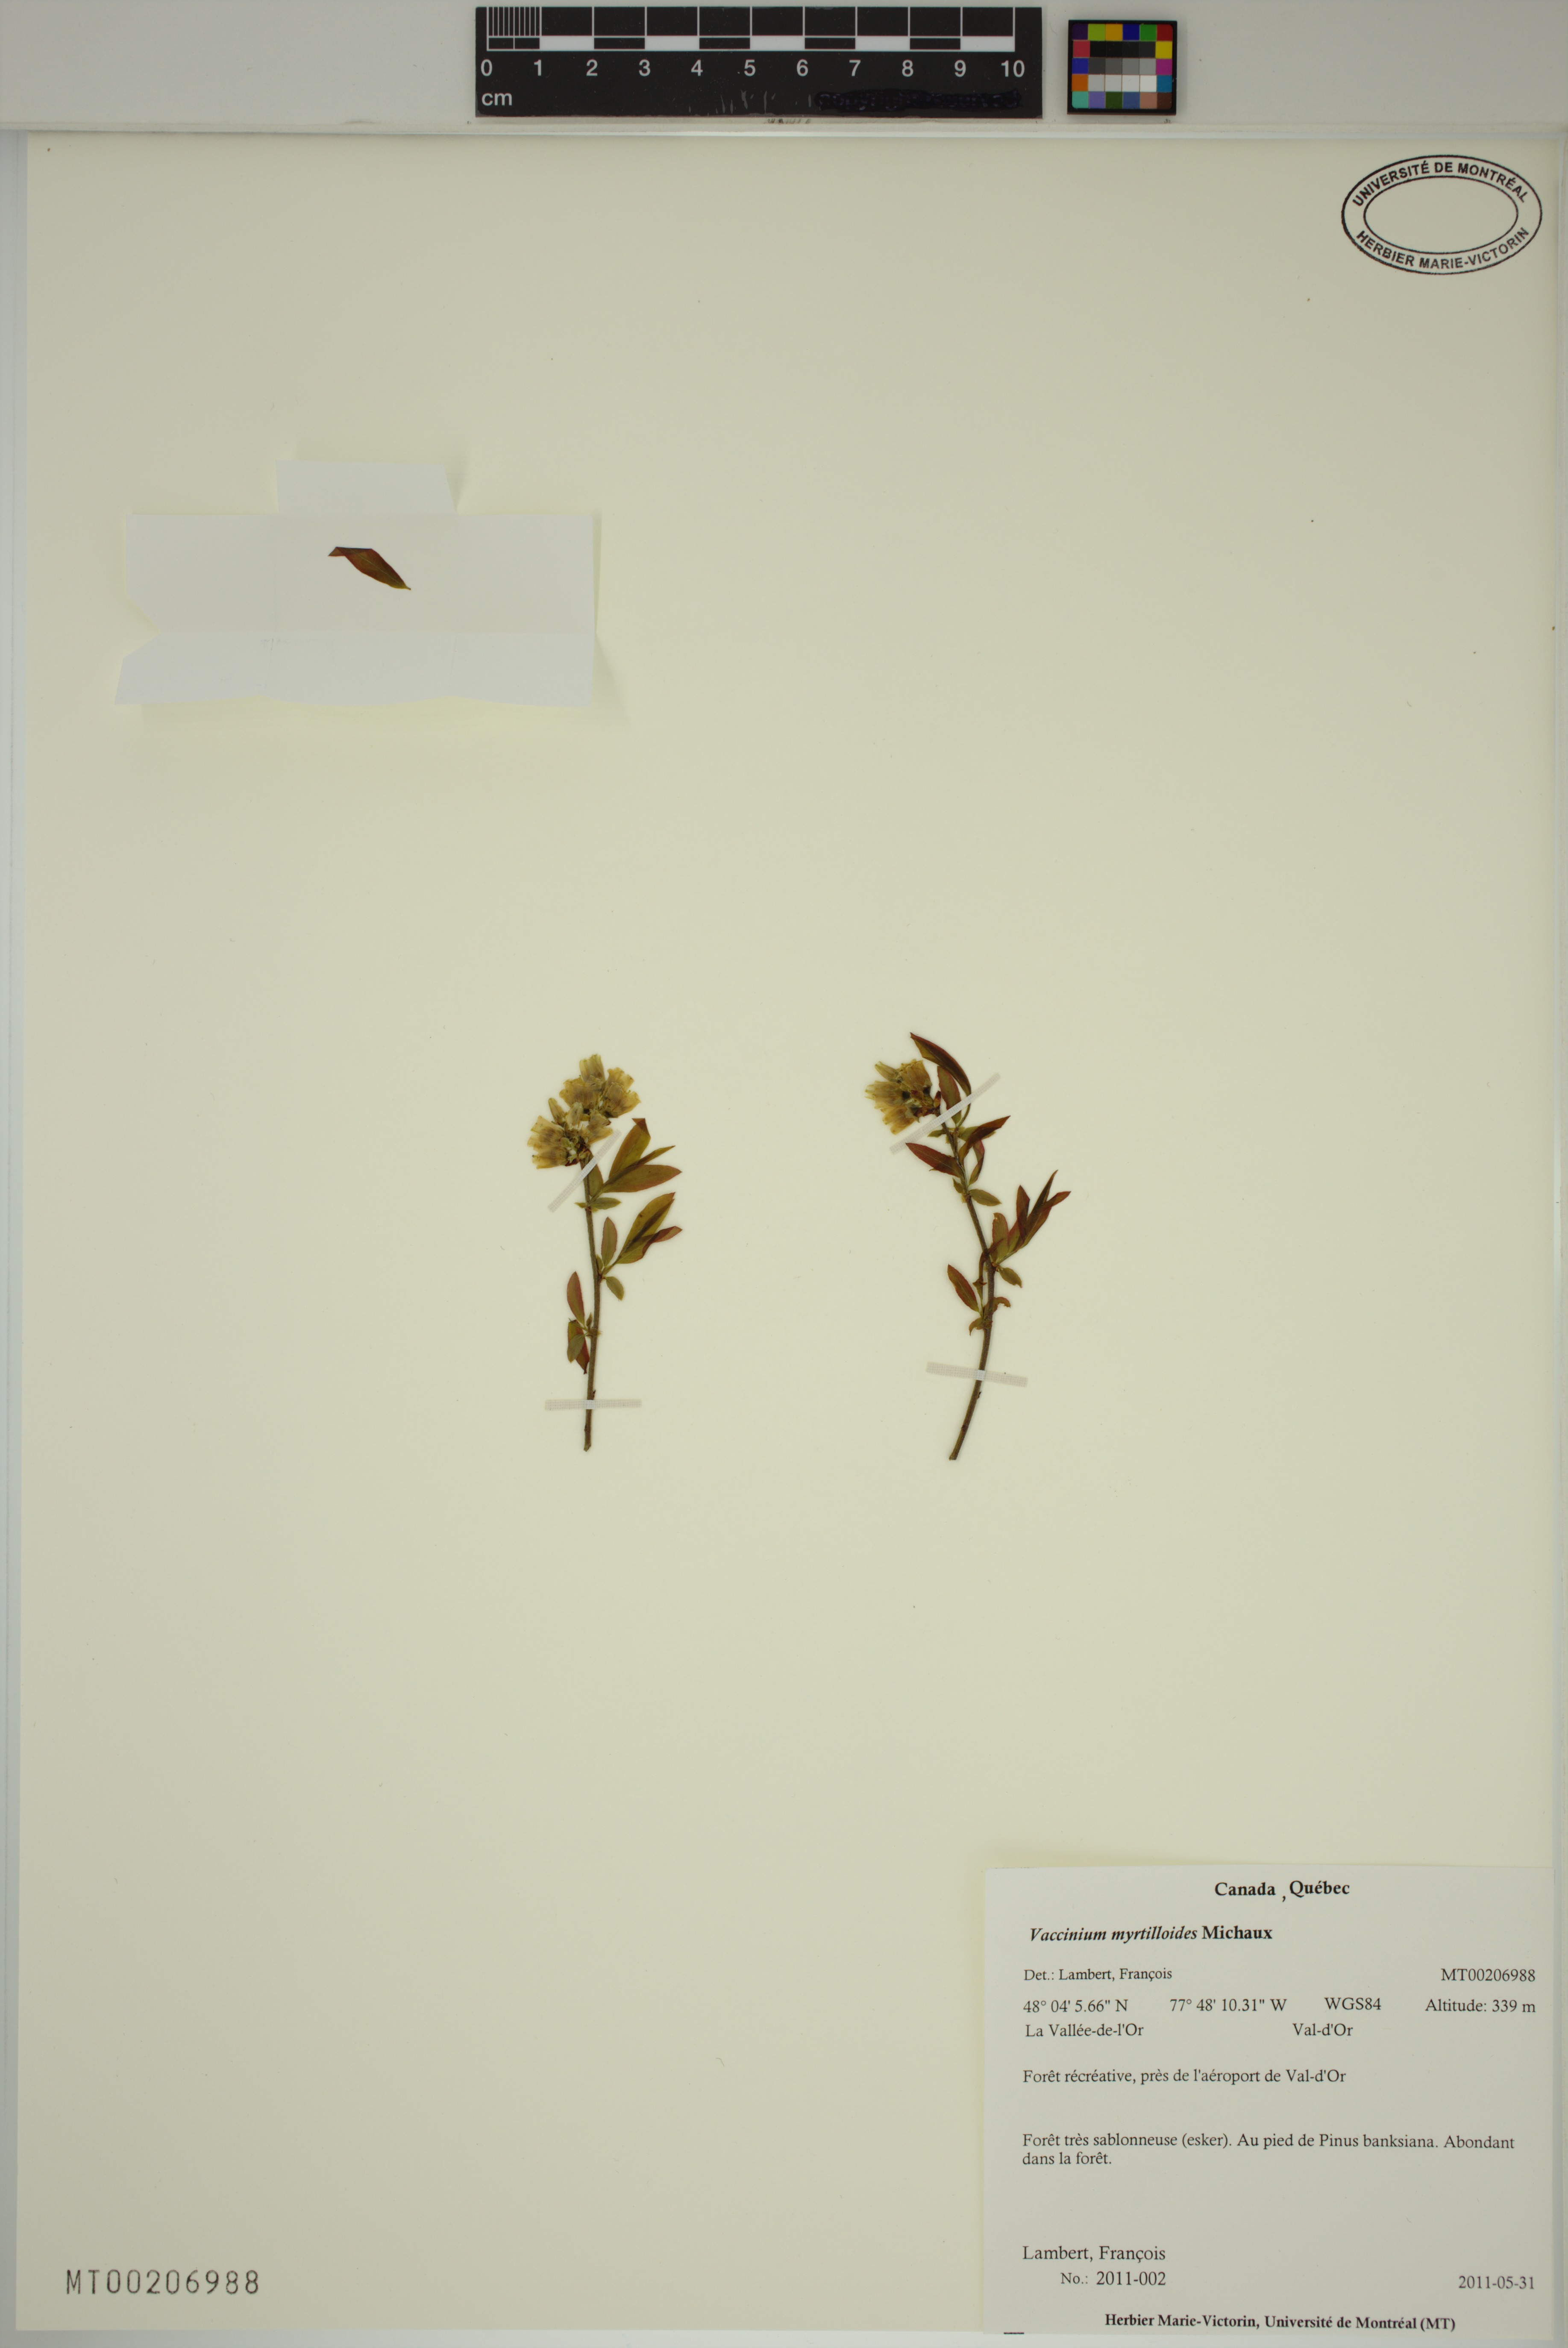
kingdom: Plantae
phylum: Tracheophyta
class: Magnoliopsida
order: Ericales
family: Ericaceae
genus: Vaccinium
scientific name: Vaccinium myrtilloides
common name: Canada blueberry
